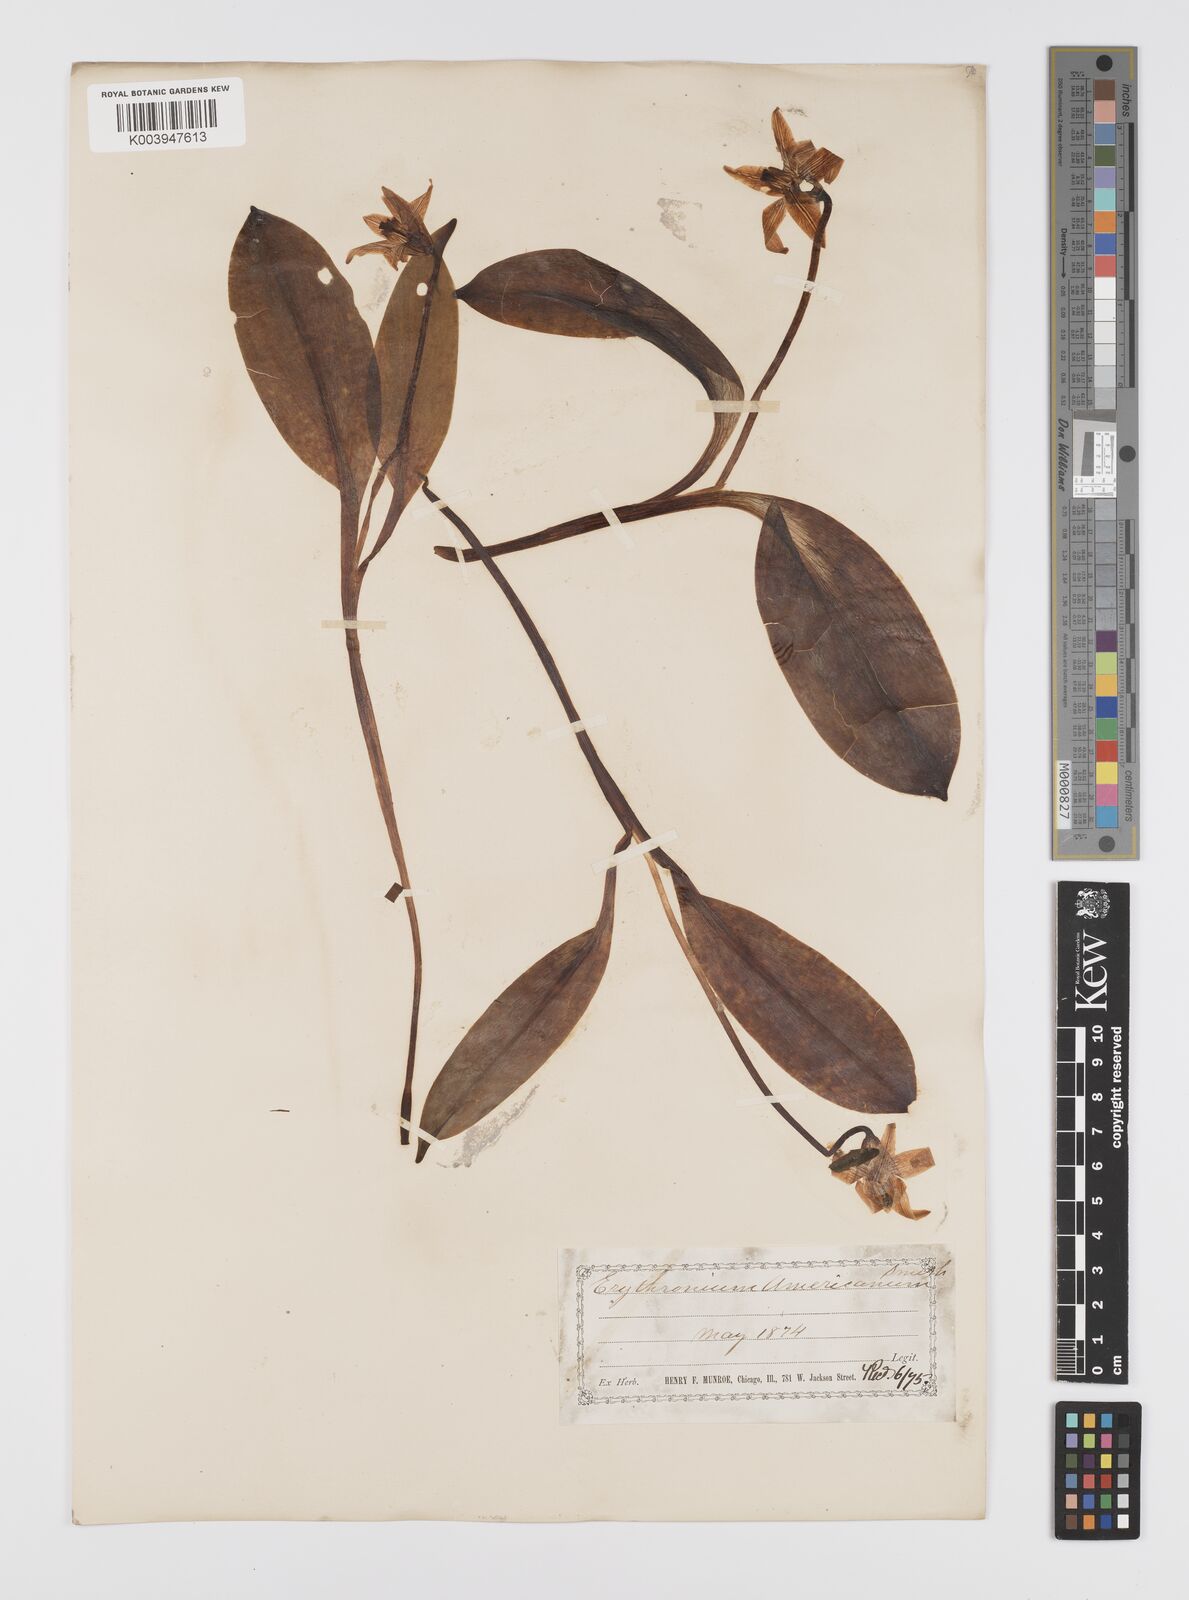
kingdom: Plantae
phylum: Tracheophyta
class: Liliopsida
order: Liliales
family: Liliaceae
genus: Erythronium
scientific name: Erythronium grandiflorum
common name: Avalanche-lily
